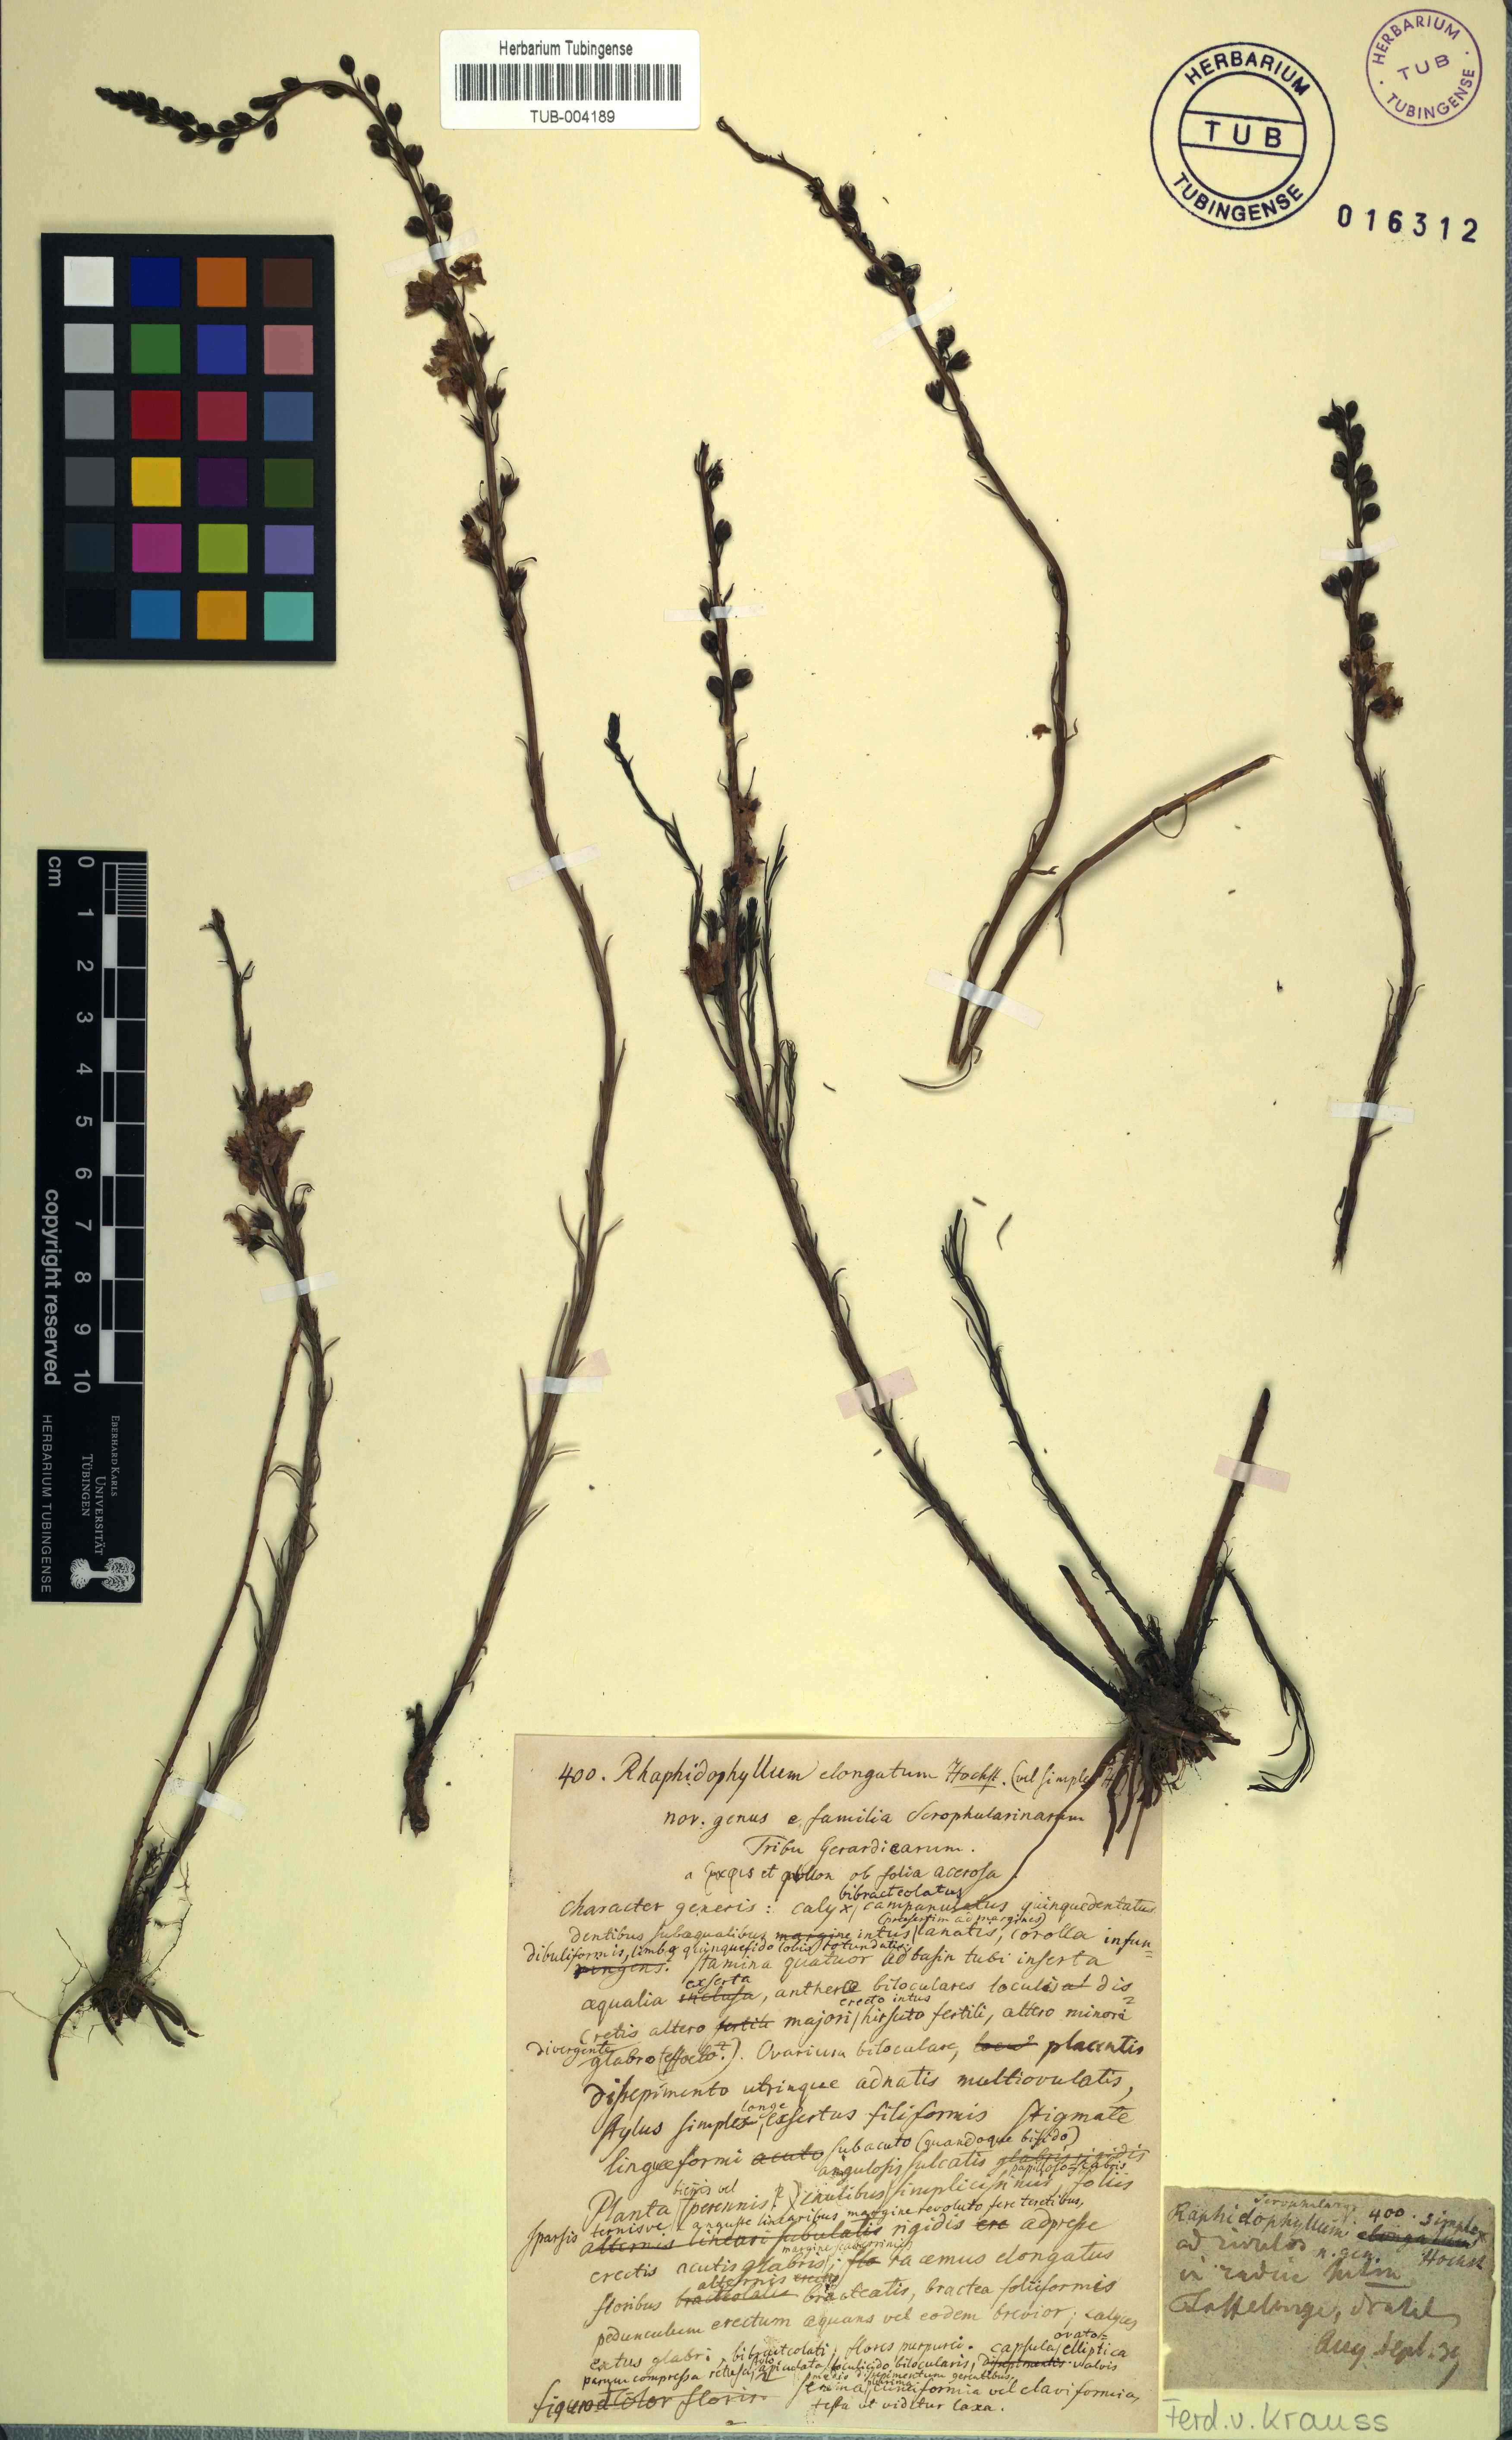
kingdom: Plantae
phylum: Tracheophyta
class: Magnoliopsida
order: Lamiales
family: Orobanchaceae
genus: Sopubia
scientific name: Sopubia simplex
